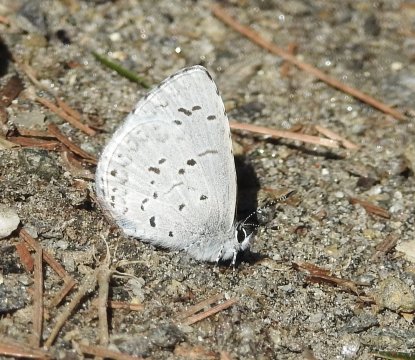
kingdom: Animalia
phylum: Arthropoda
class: Insecta
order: Lepidoptera
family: Lycaenidae
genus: Celastrina
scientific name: Celastrina lucia
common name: Northern Spring Azure
